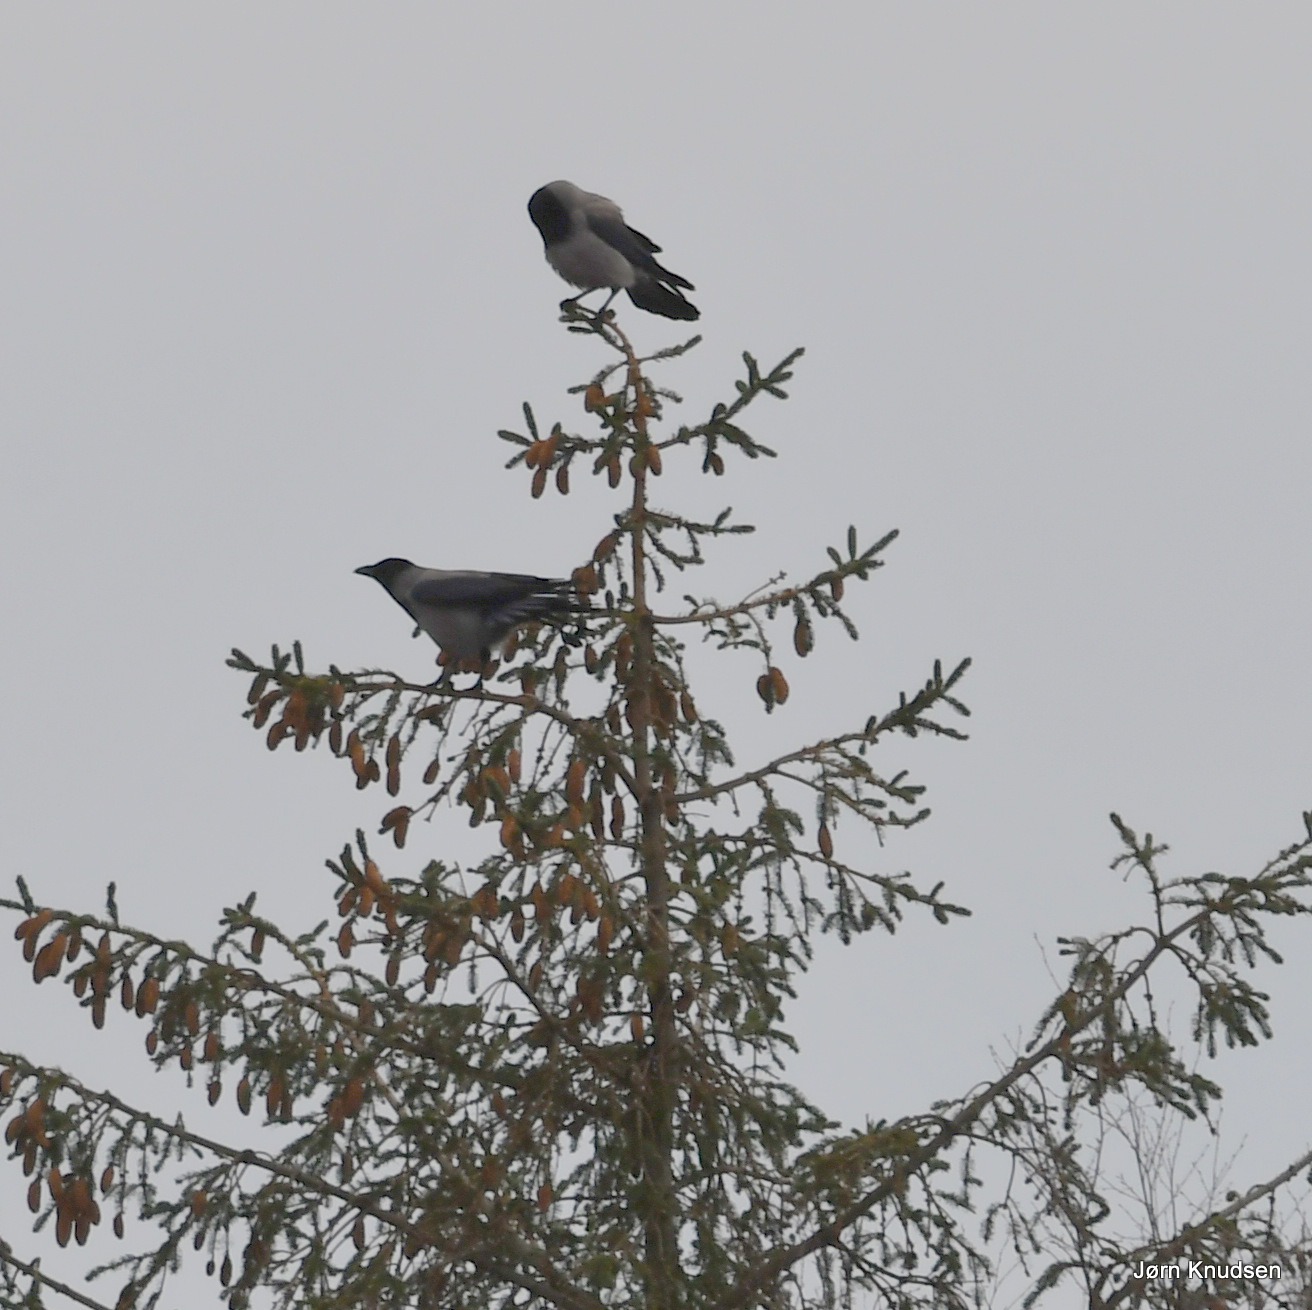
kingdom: Animalia
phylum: Chordata
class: Aves
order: Passeriformes
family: Corvidae
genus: Corvus
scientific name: Corvus cornix
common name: Gråkrage
